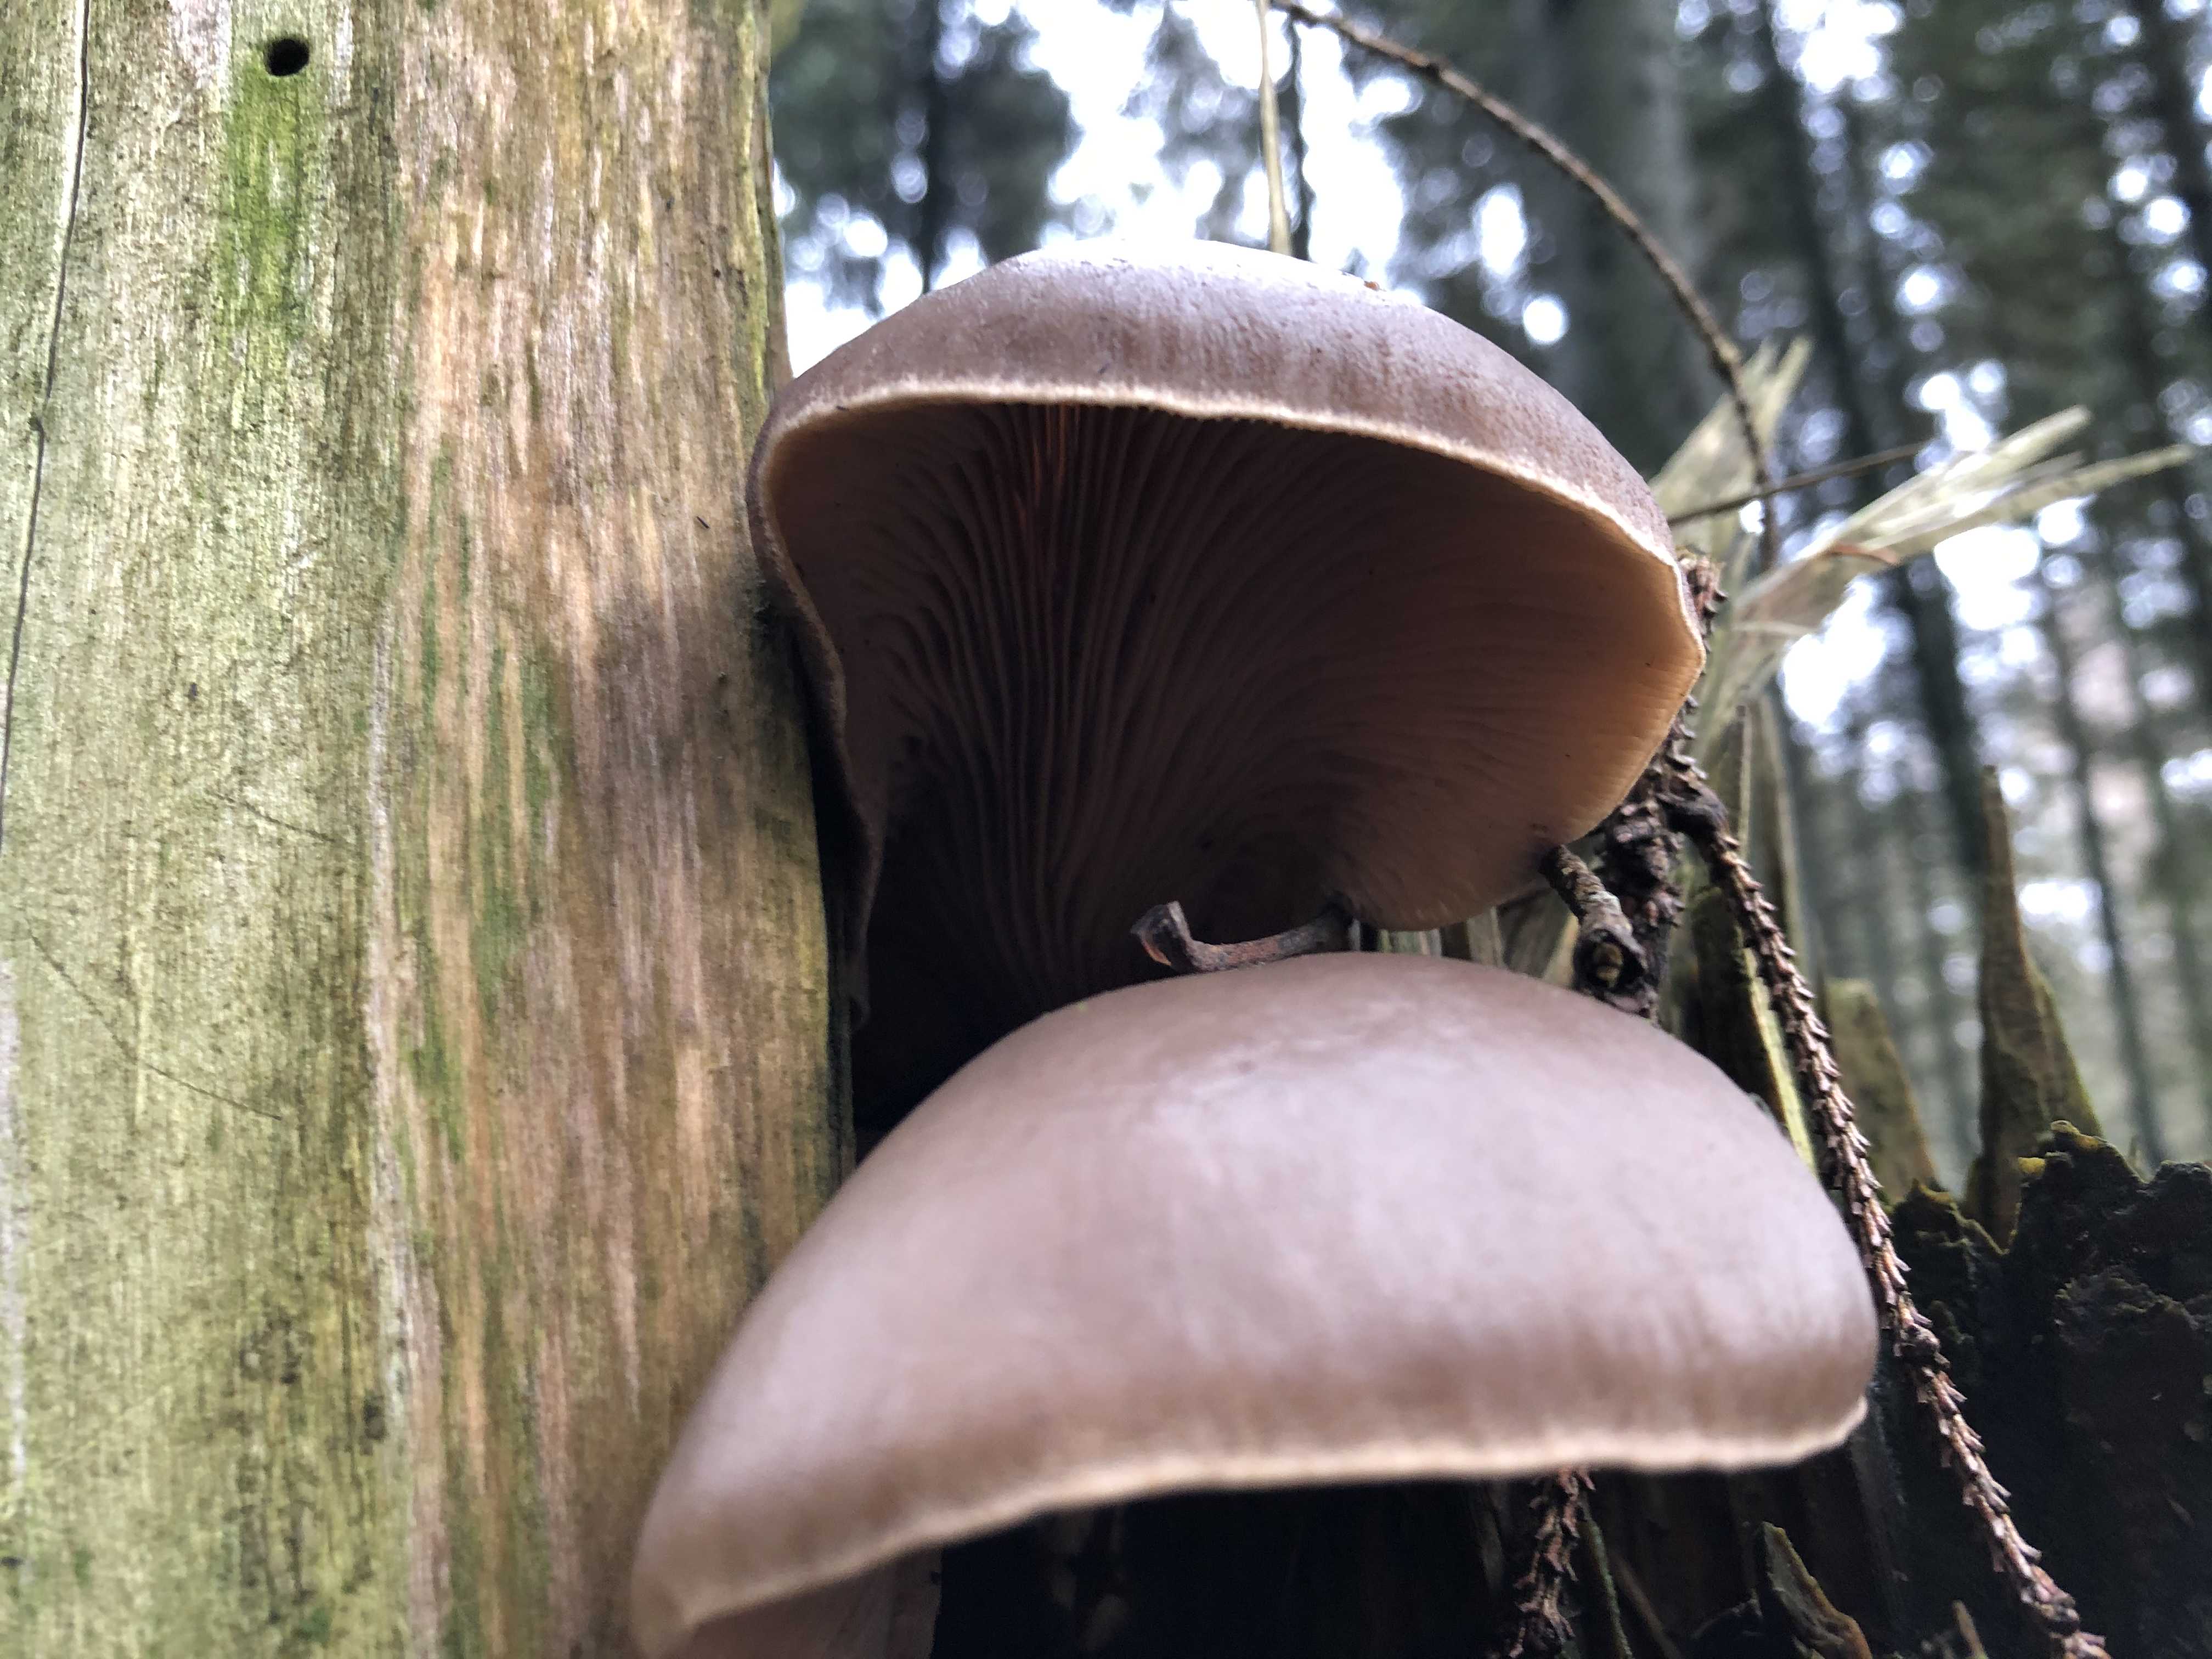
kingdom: Fungi
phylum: Basidiomycota
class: Agaricomycetes
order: Agaricales
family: Pleurotaceae
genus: Pleurotus
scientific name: Pleurotus ostreatus
